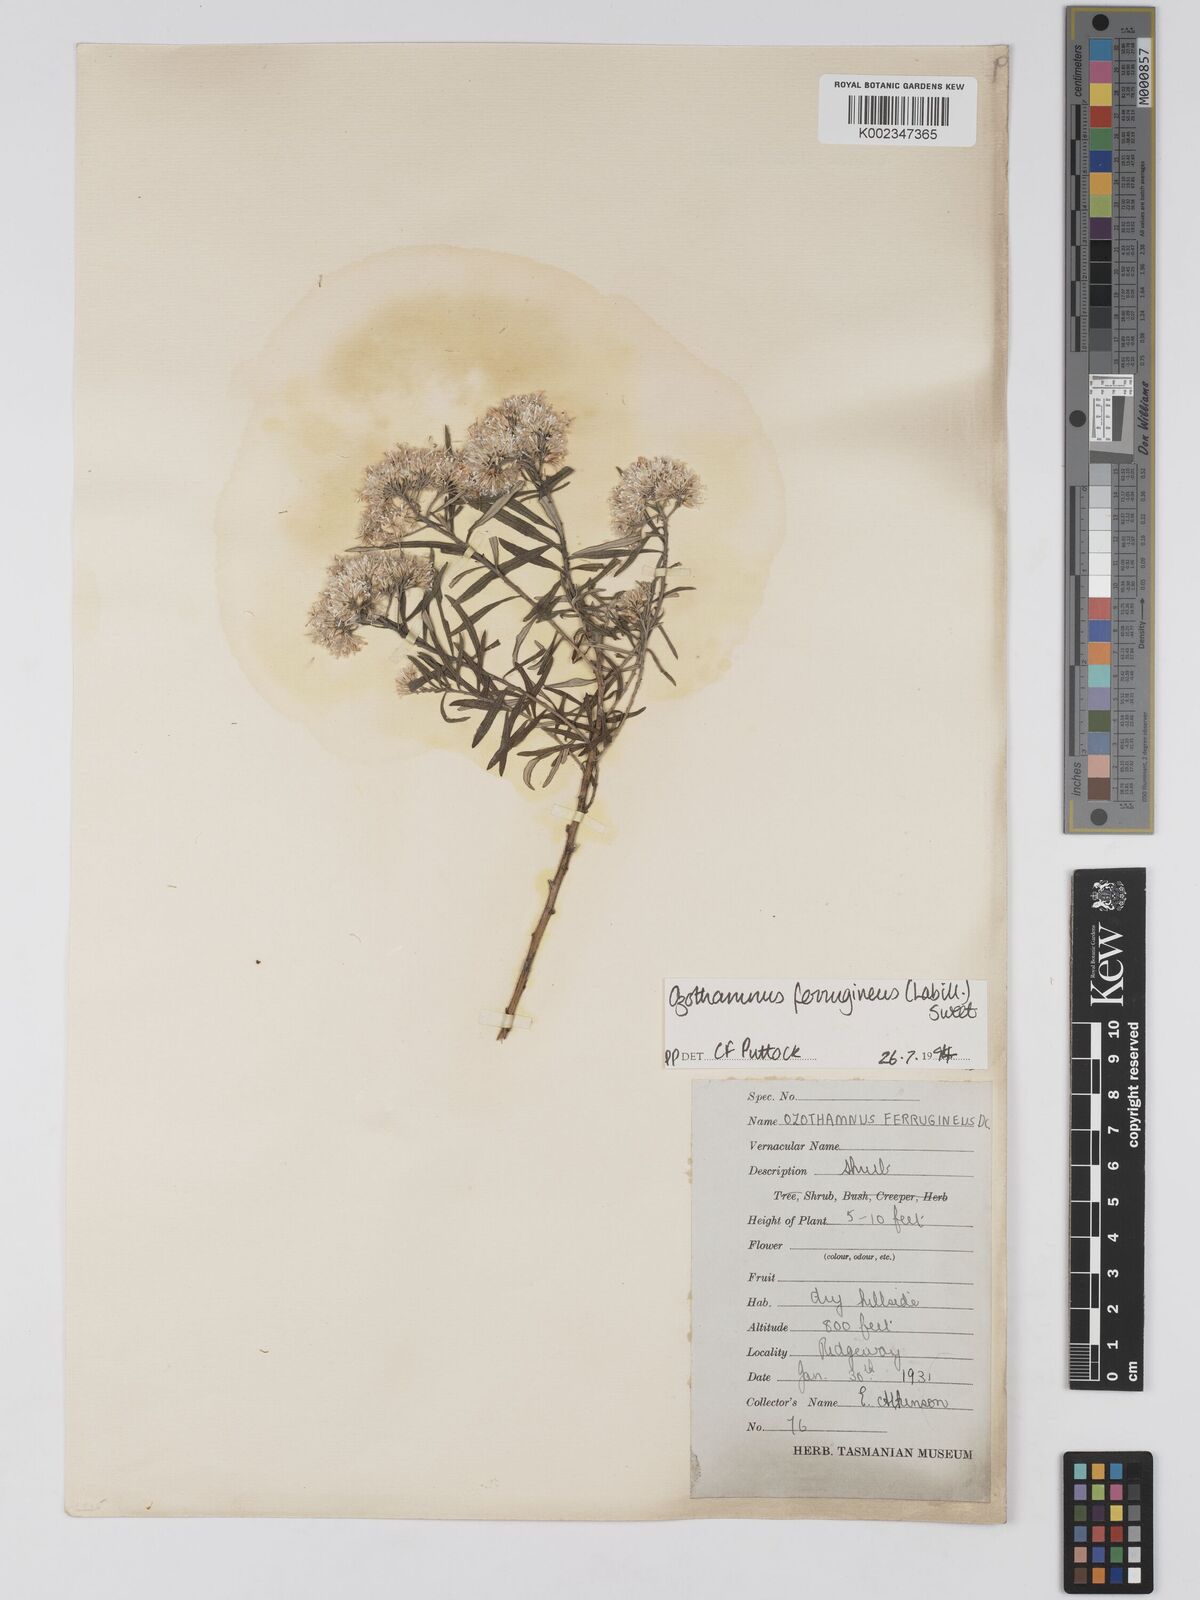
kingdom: Plantae
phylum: Tracheophyta
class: Magnoliopsida
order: Asterales
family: Asteraceae
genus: Ozothamnus
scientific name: Ozothamnus argophyllus
